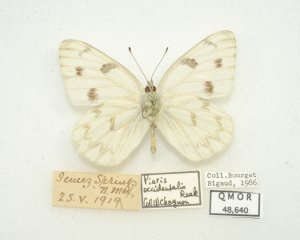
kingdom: Animalia
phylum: Arthropoda
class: Insecta
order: Lepidoptera
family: Pieridae
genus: Pontia
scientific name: Pontia protodice
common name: Checkered White
